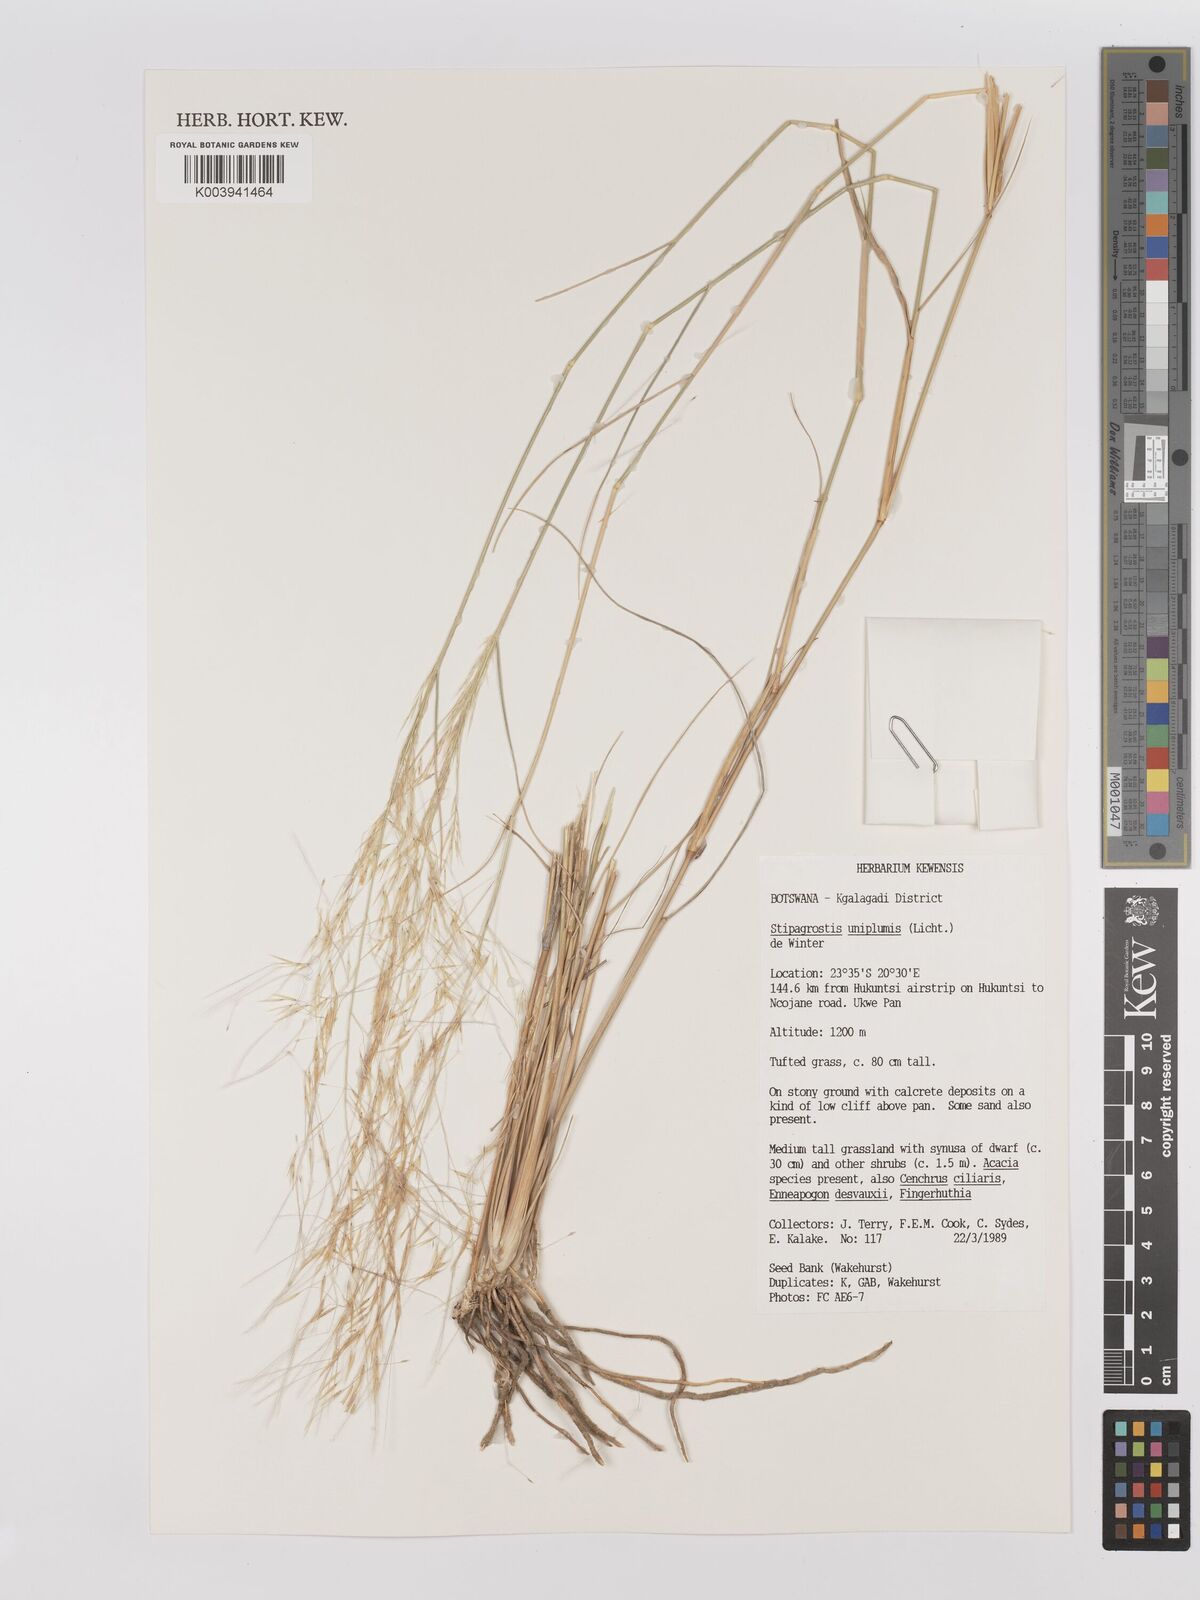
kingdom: Plantae
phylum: Tracheophyta
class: Liliopsida
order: Poales
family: Poaceae
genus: Stipagrostis
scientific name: Stipagrostis uniplumis
